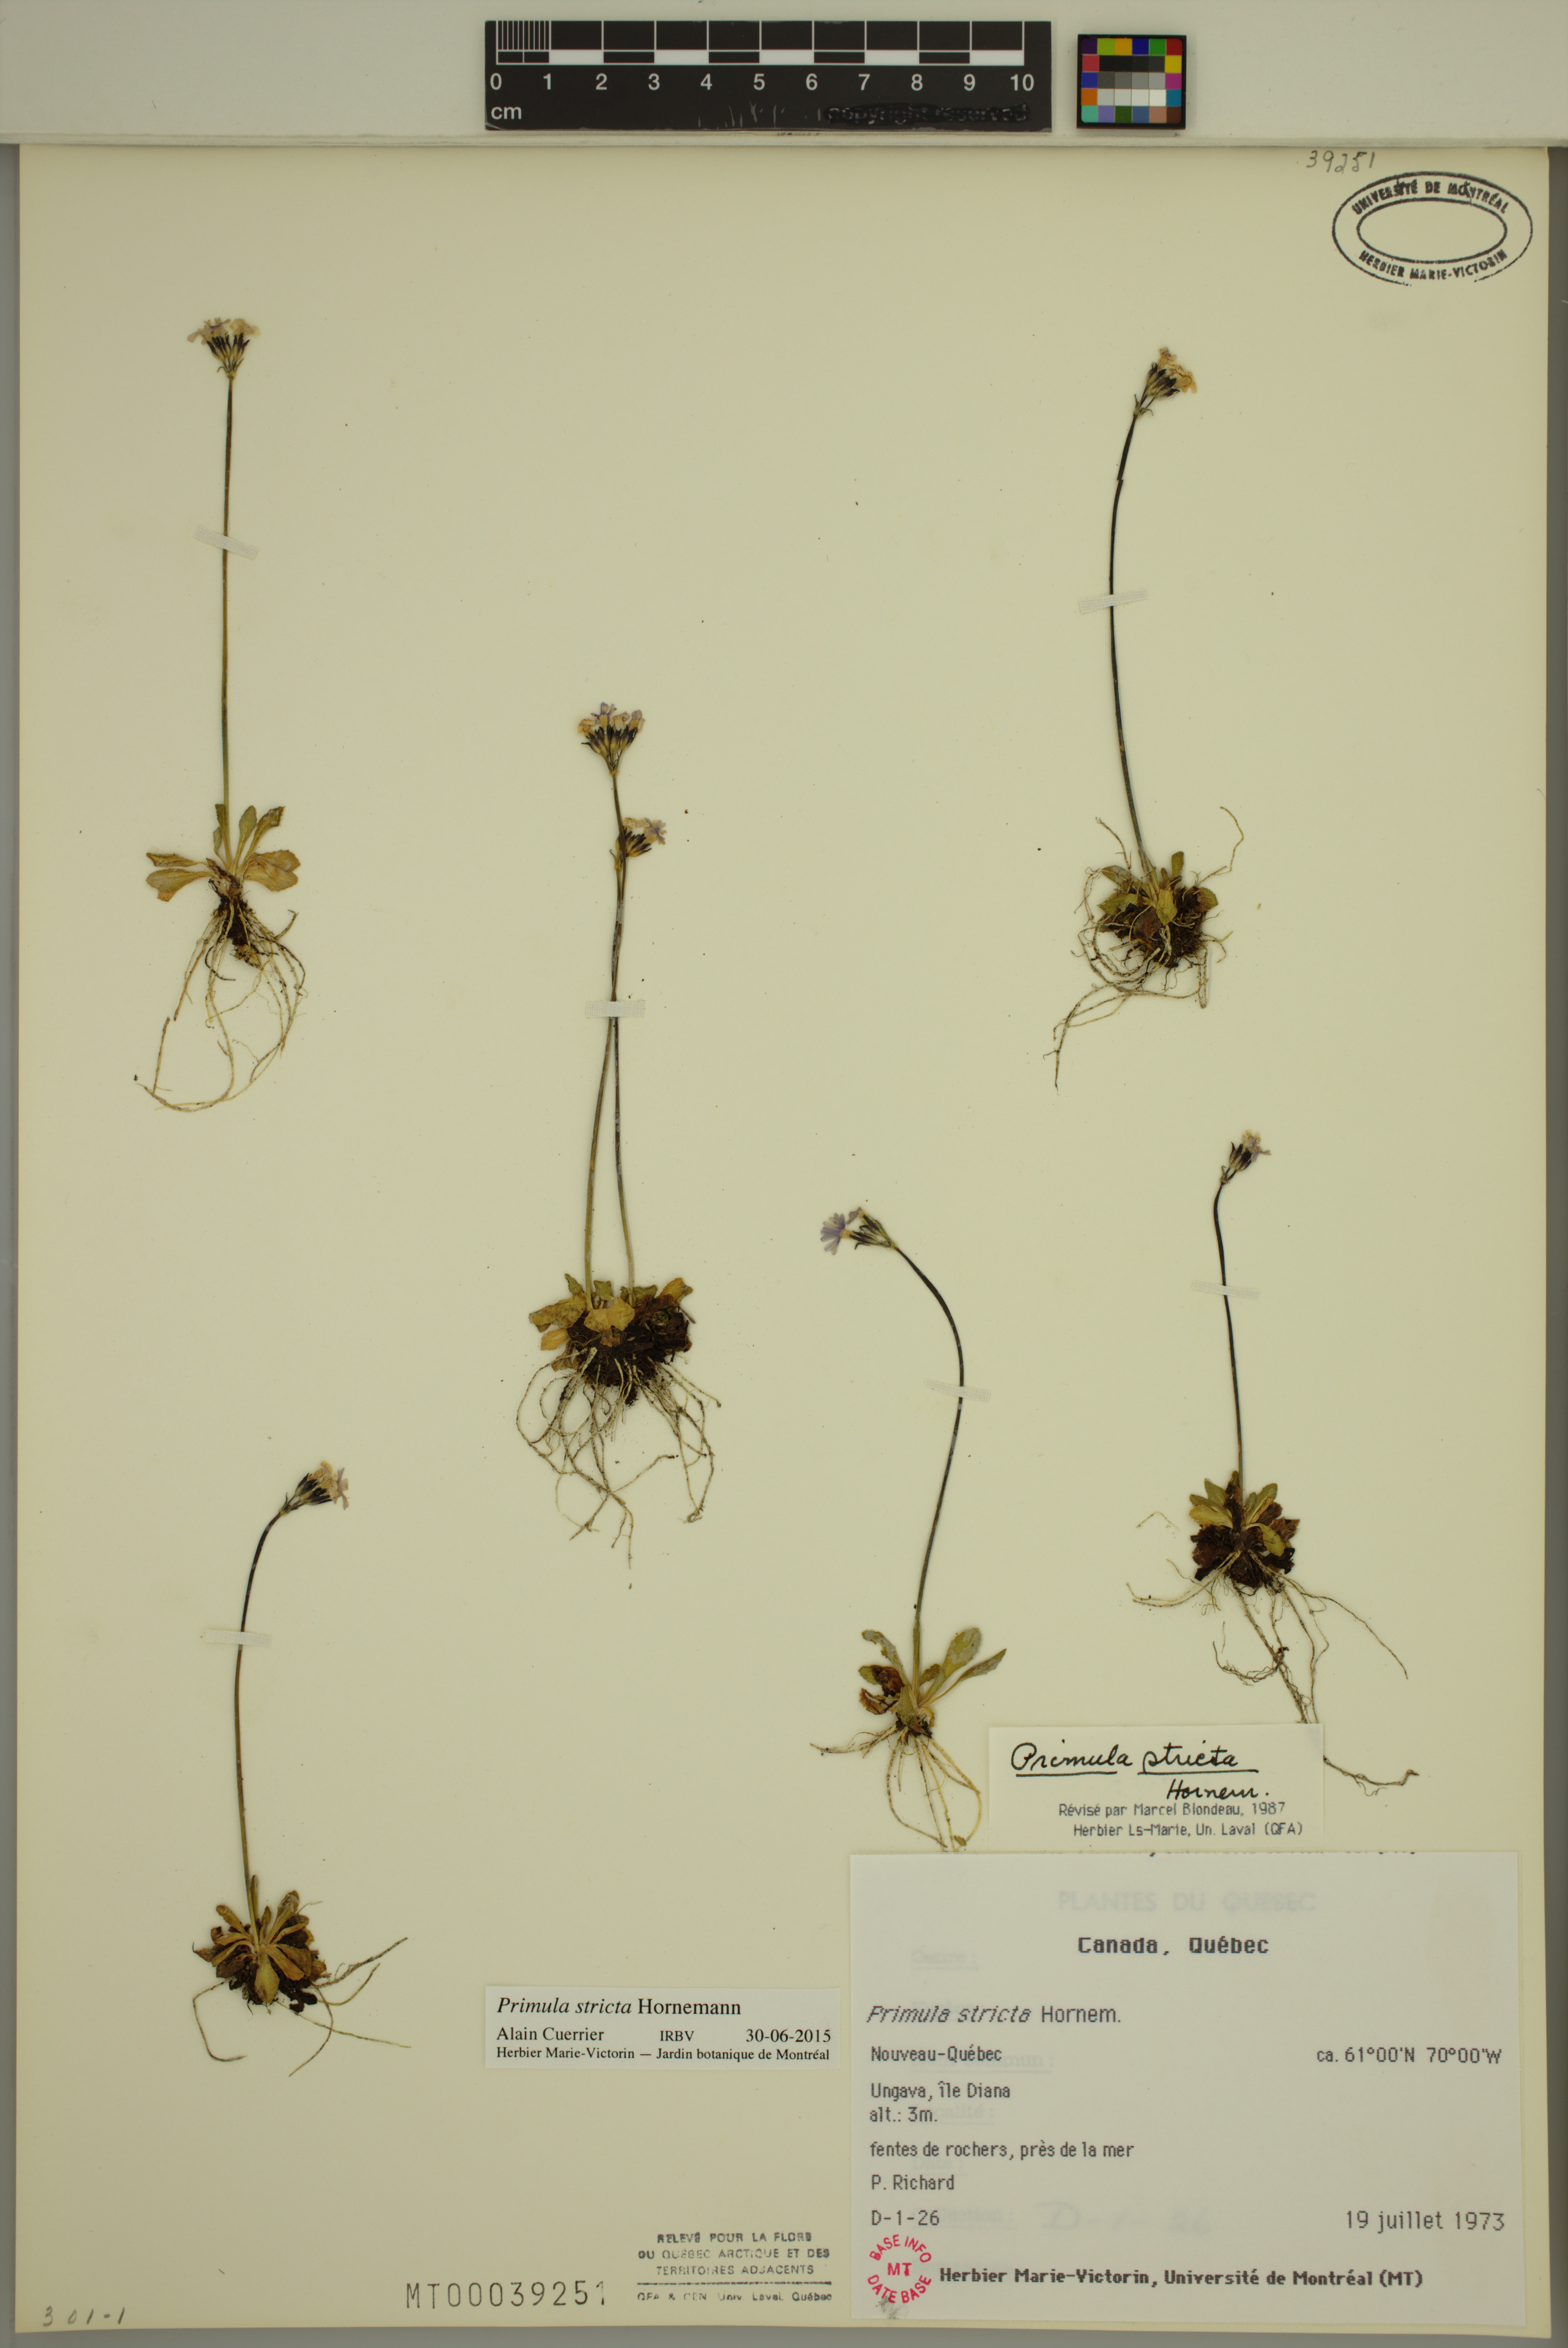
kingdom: Plantae
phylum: Tracheophyta
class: Magnoliopsida
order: Ericales
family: Primulaceae
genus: Primula
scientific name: Primula stricta
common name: Coastal primrose
